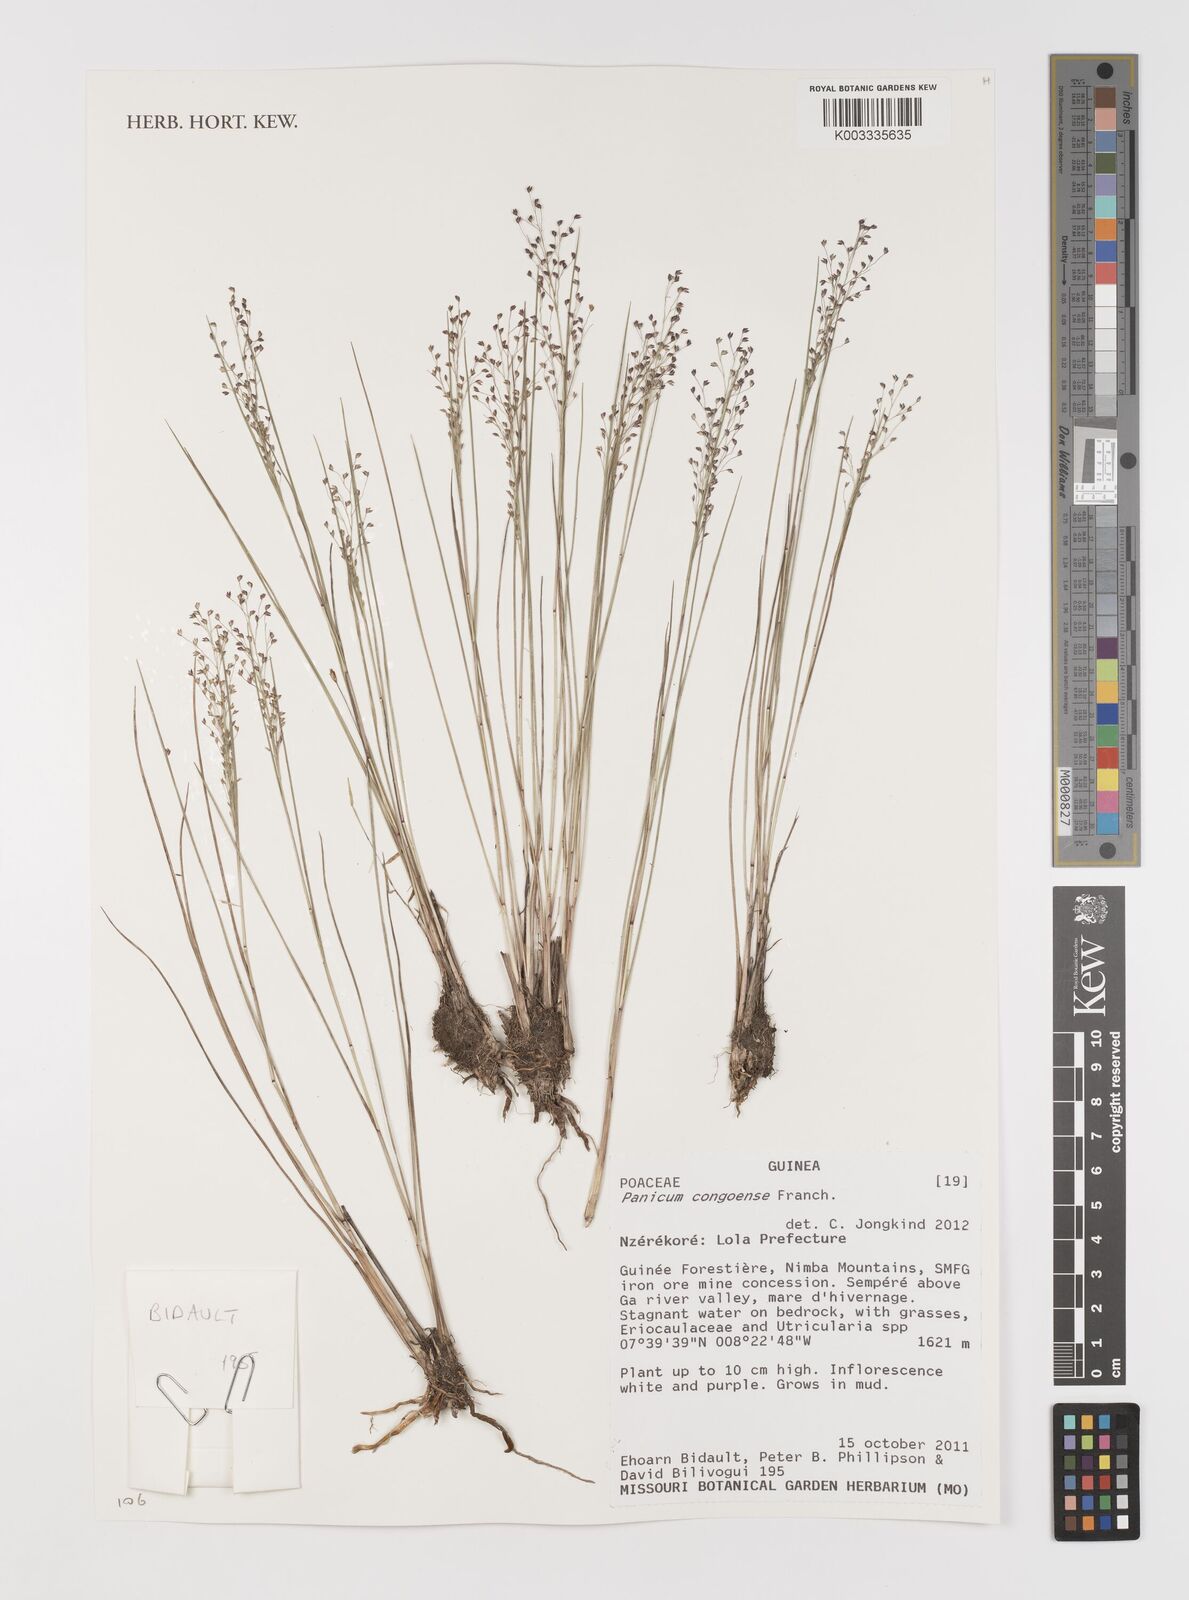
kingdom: Plantae
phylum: Tracheophyta
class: Liliopsida
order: Poales
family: Poaceae
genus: Panicum
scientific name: Panicum congoense
